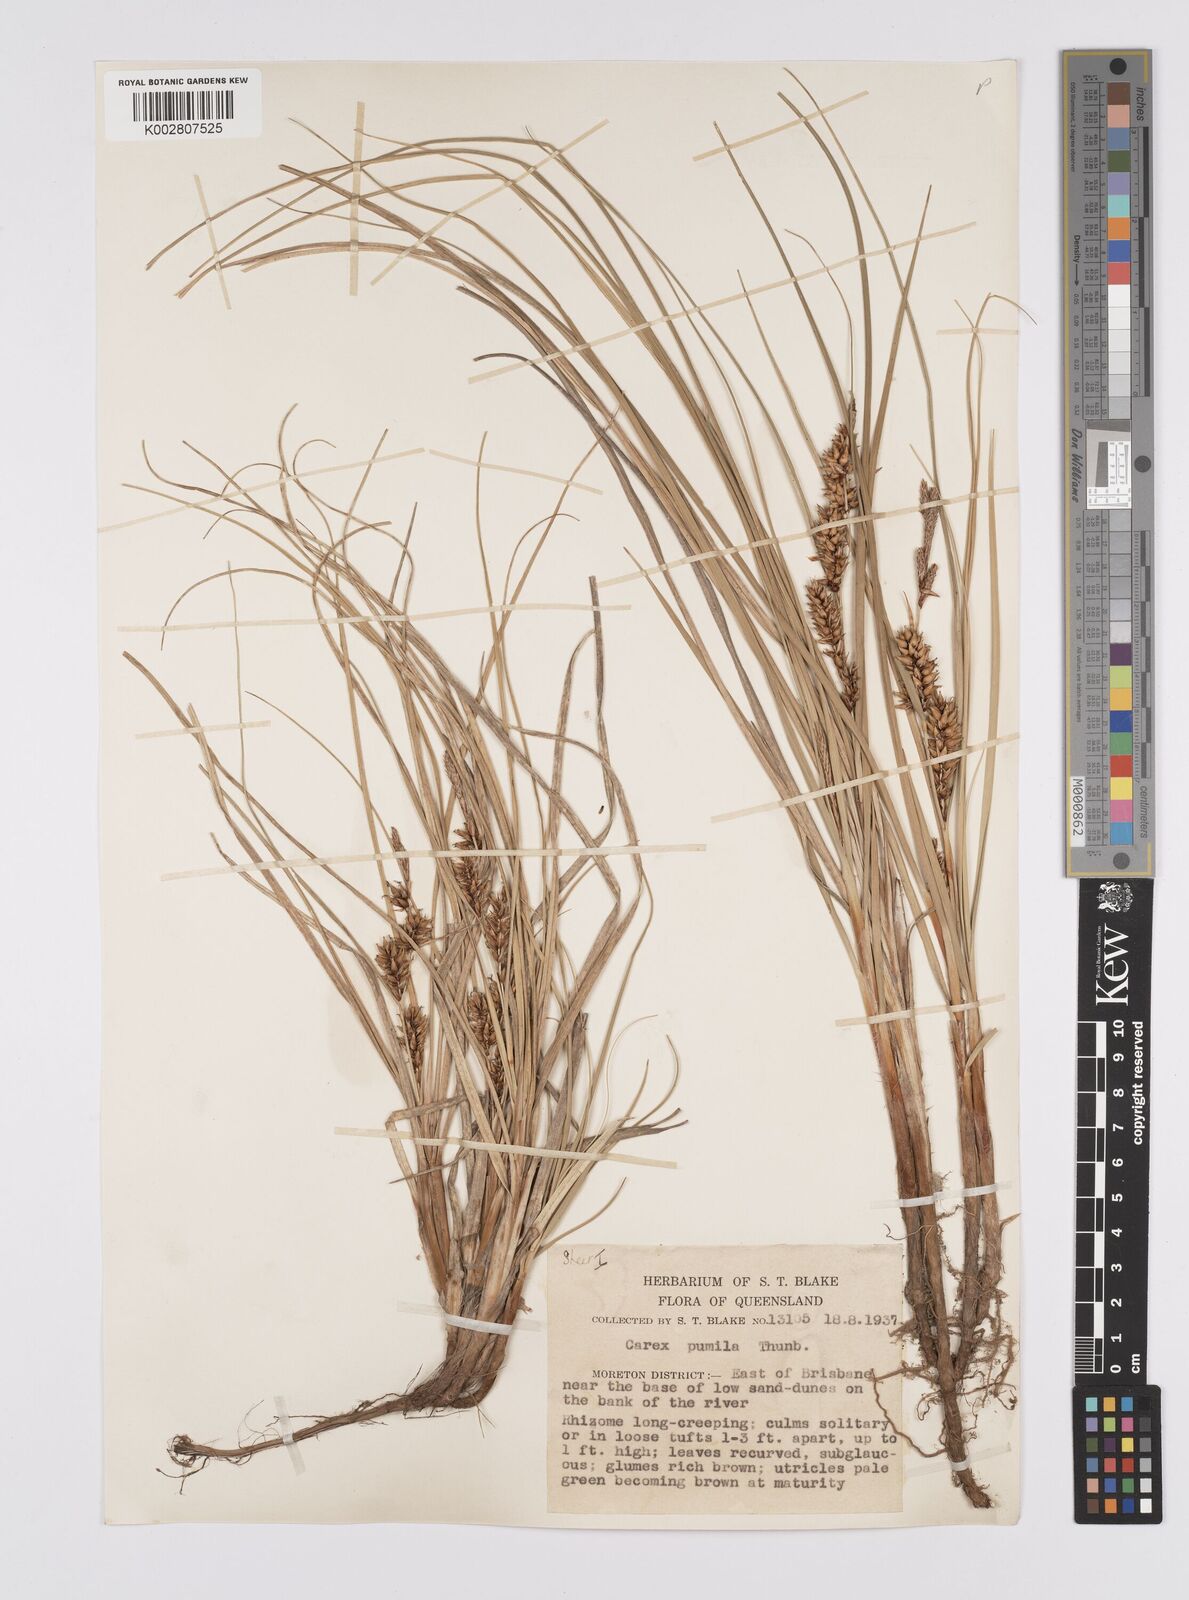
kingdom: Plantae
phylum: Tracheophyta
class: Liliopsida
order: Poales
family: Cyperaceae
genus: Carex
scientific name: Carex pumila
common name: Dwarf sedge
